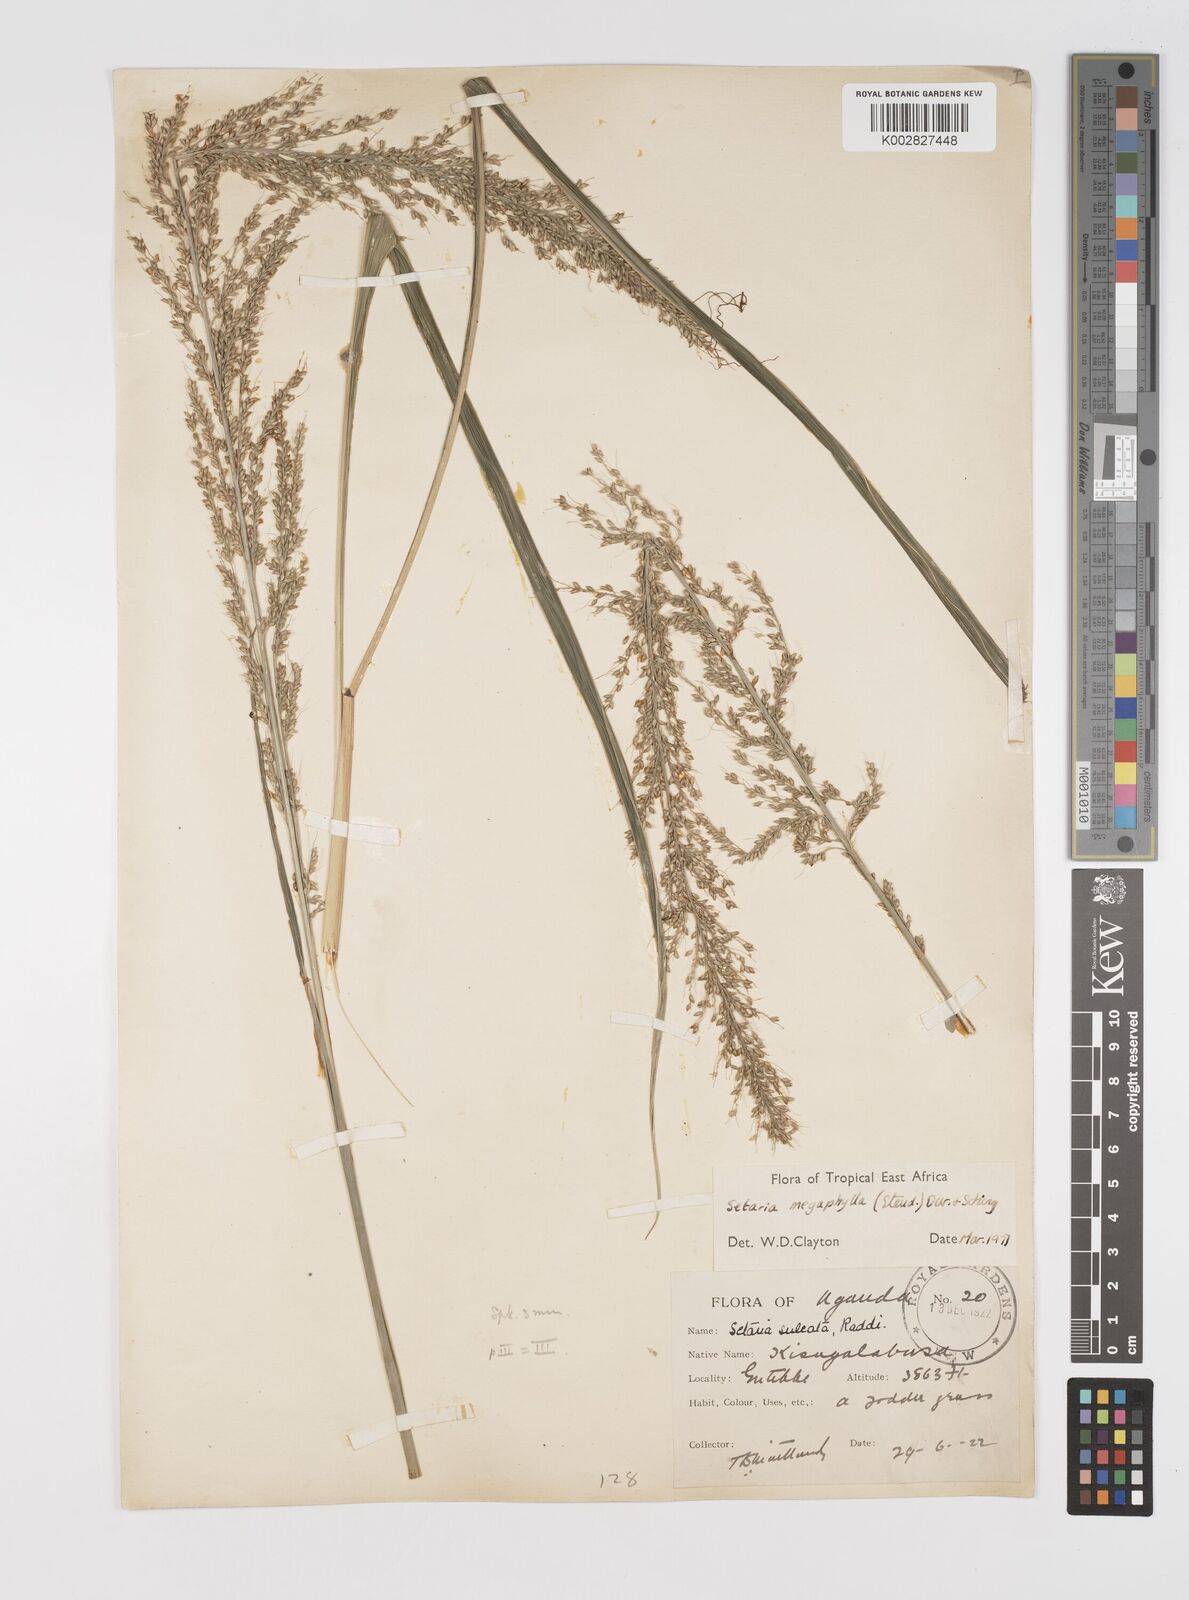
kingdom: Plantae
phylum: Tracheophyta
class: Liliopsida
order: Poales
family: Poaceae
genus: Setaria
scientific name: Setaria megaphylla
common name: Bigleaf bristlegrass
